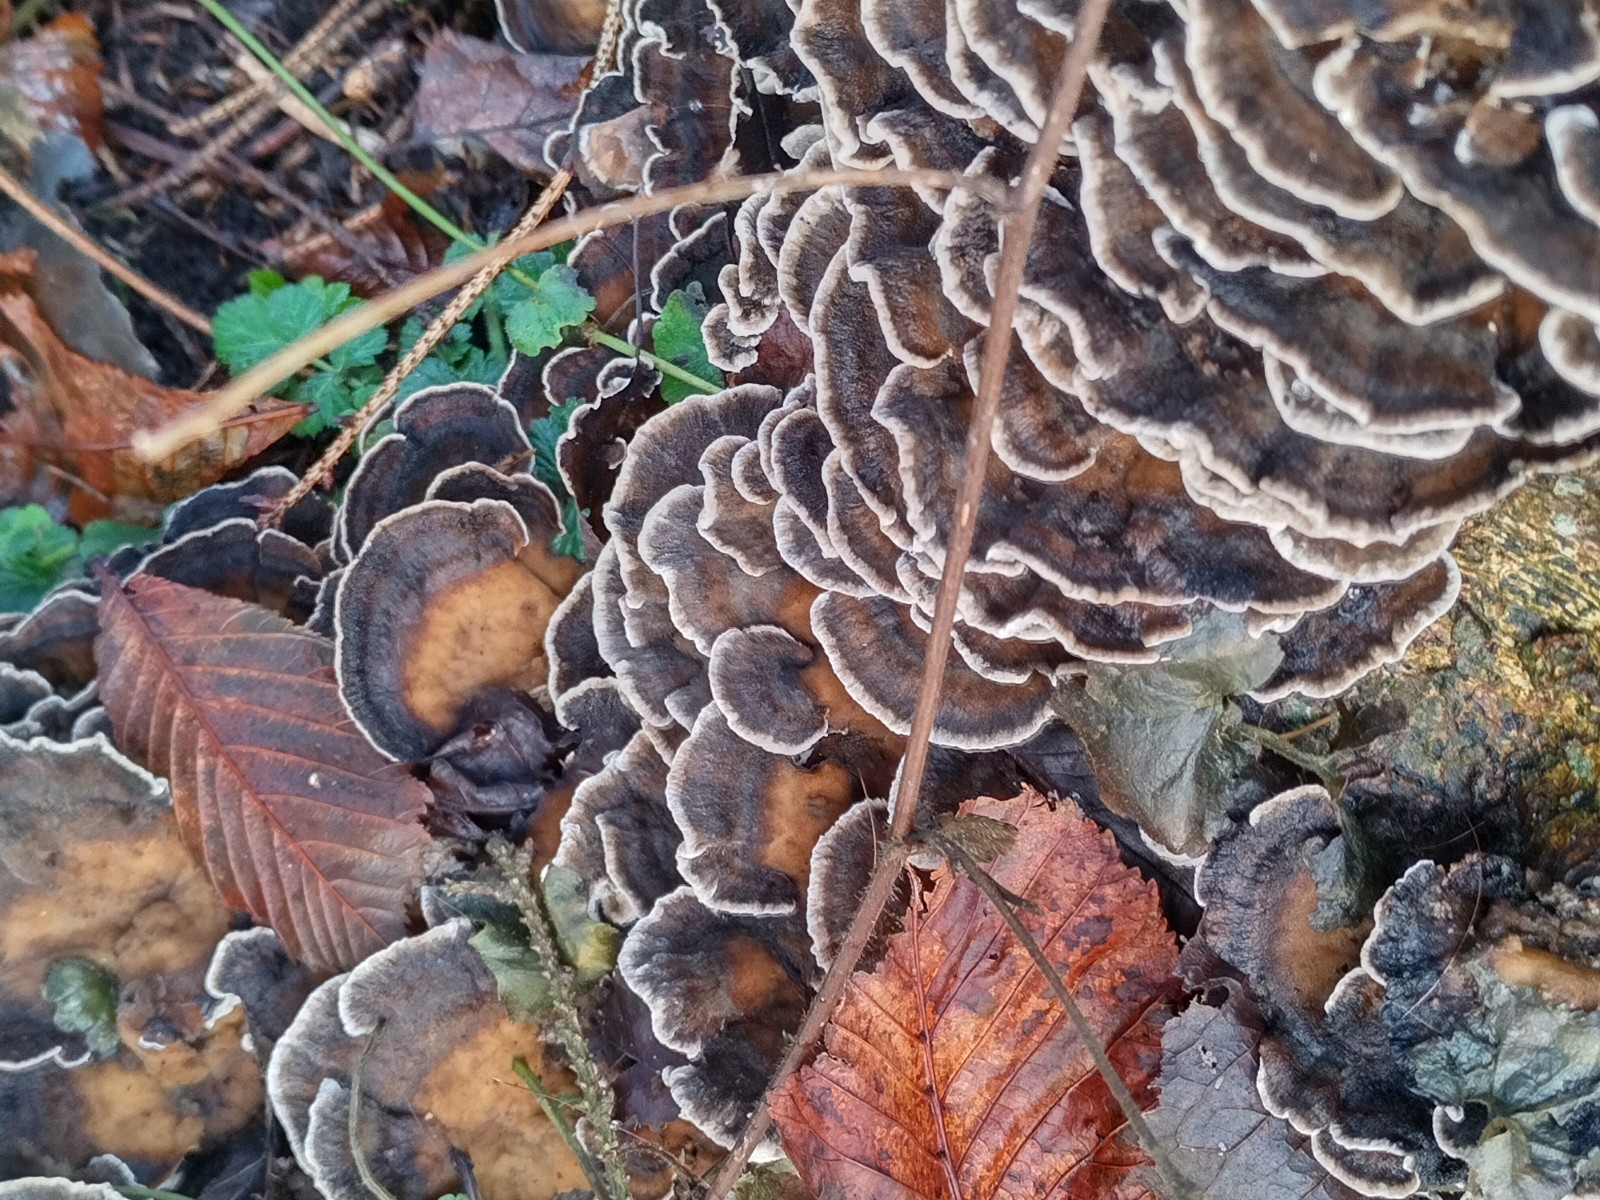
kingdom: Fungi
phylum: Basidiomycota
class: Agaricomycetes
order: Polyporales
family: Phanerochaetaceae
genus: Bjerkandera
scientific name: Bjerkandera adusta
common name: sveden sodporesvamp
